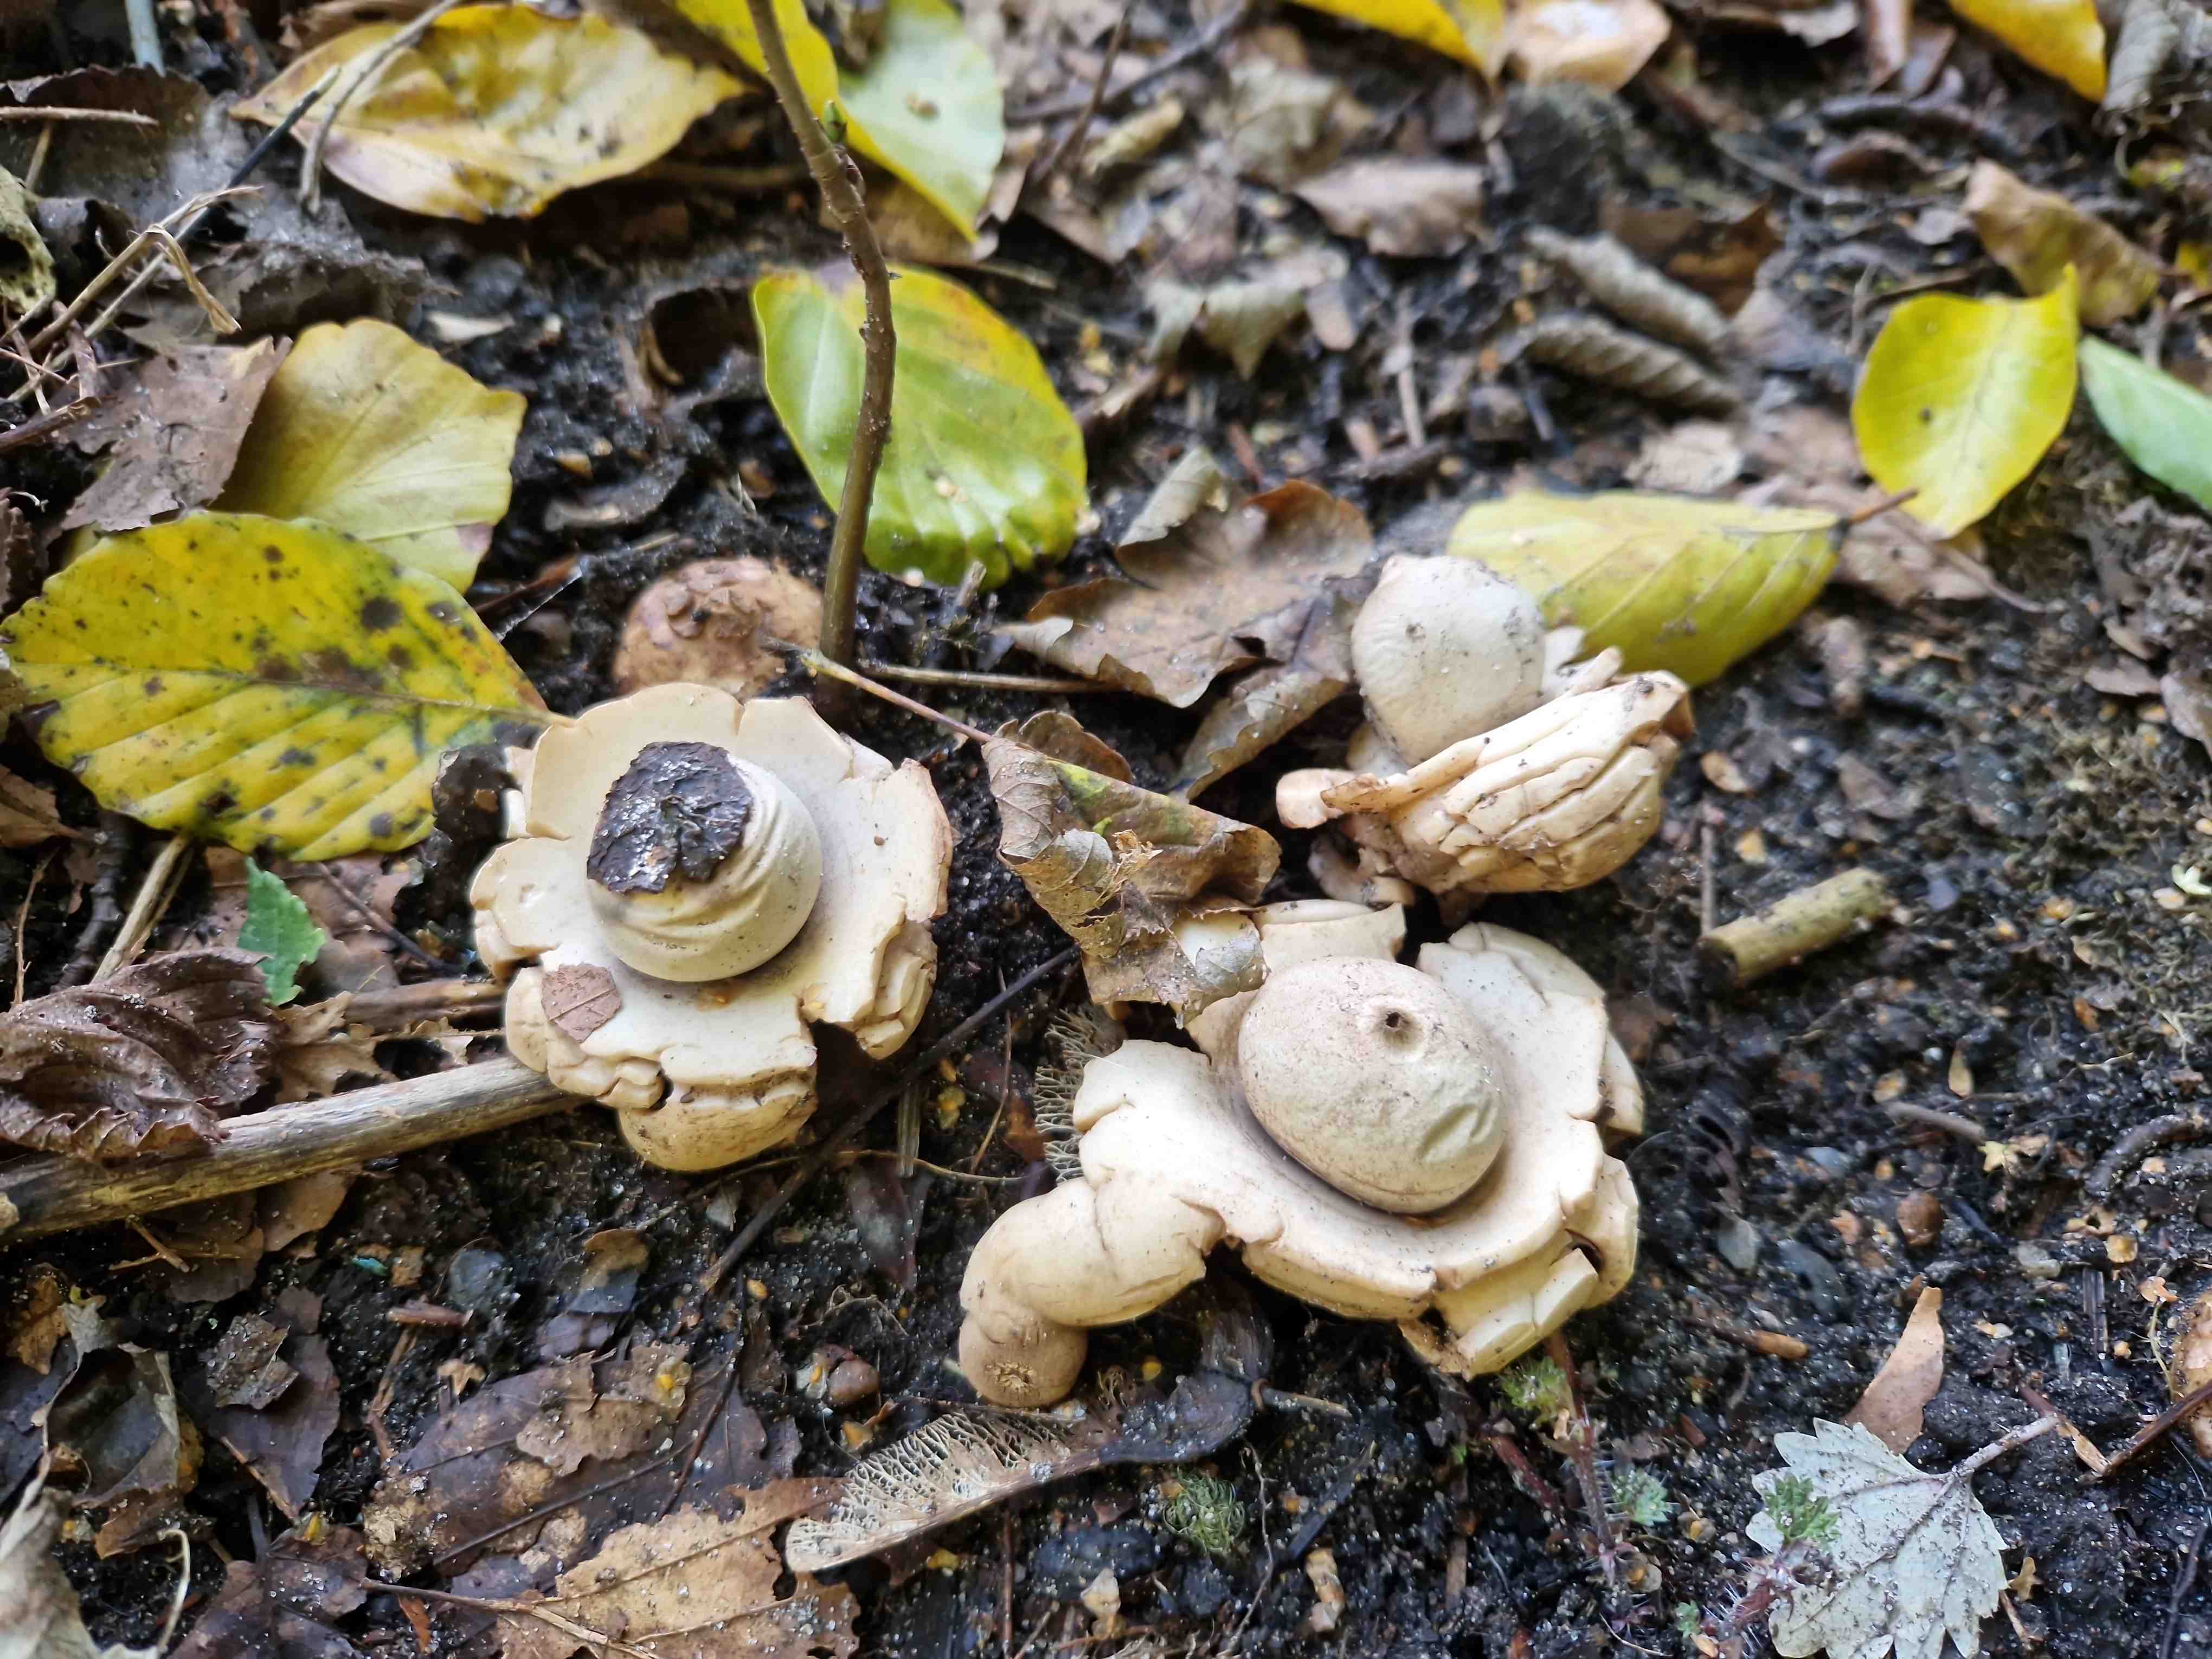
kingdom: Fungi
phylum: Basidiomycota
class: Agaricomycetes
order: Geastrales
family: Geastraceae
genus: Geastrum
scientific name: Geastrum michelianum
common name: kødet stjernebold
